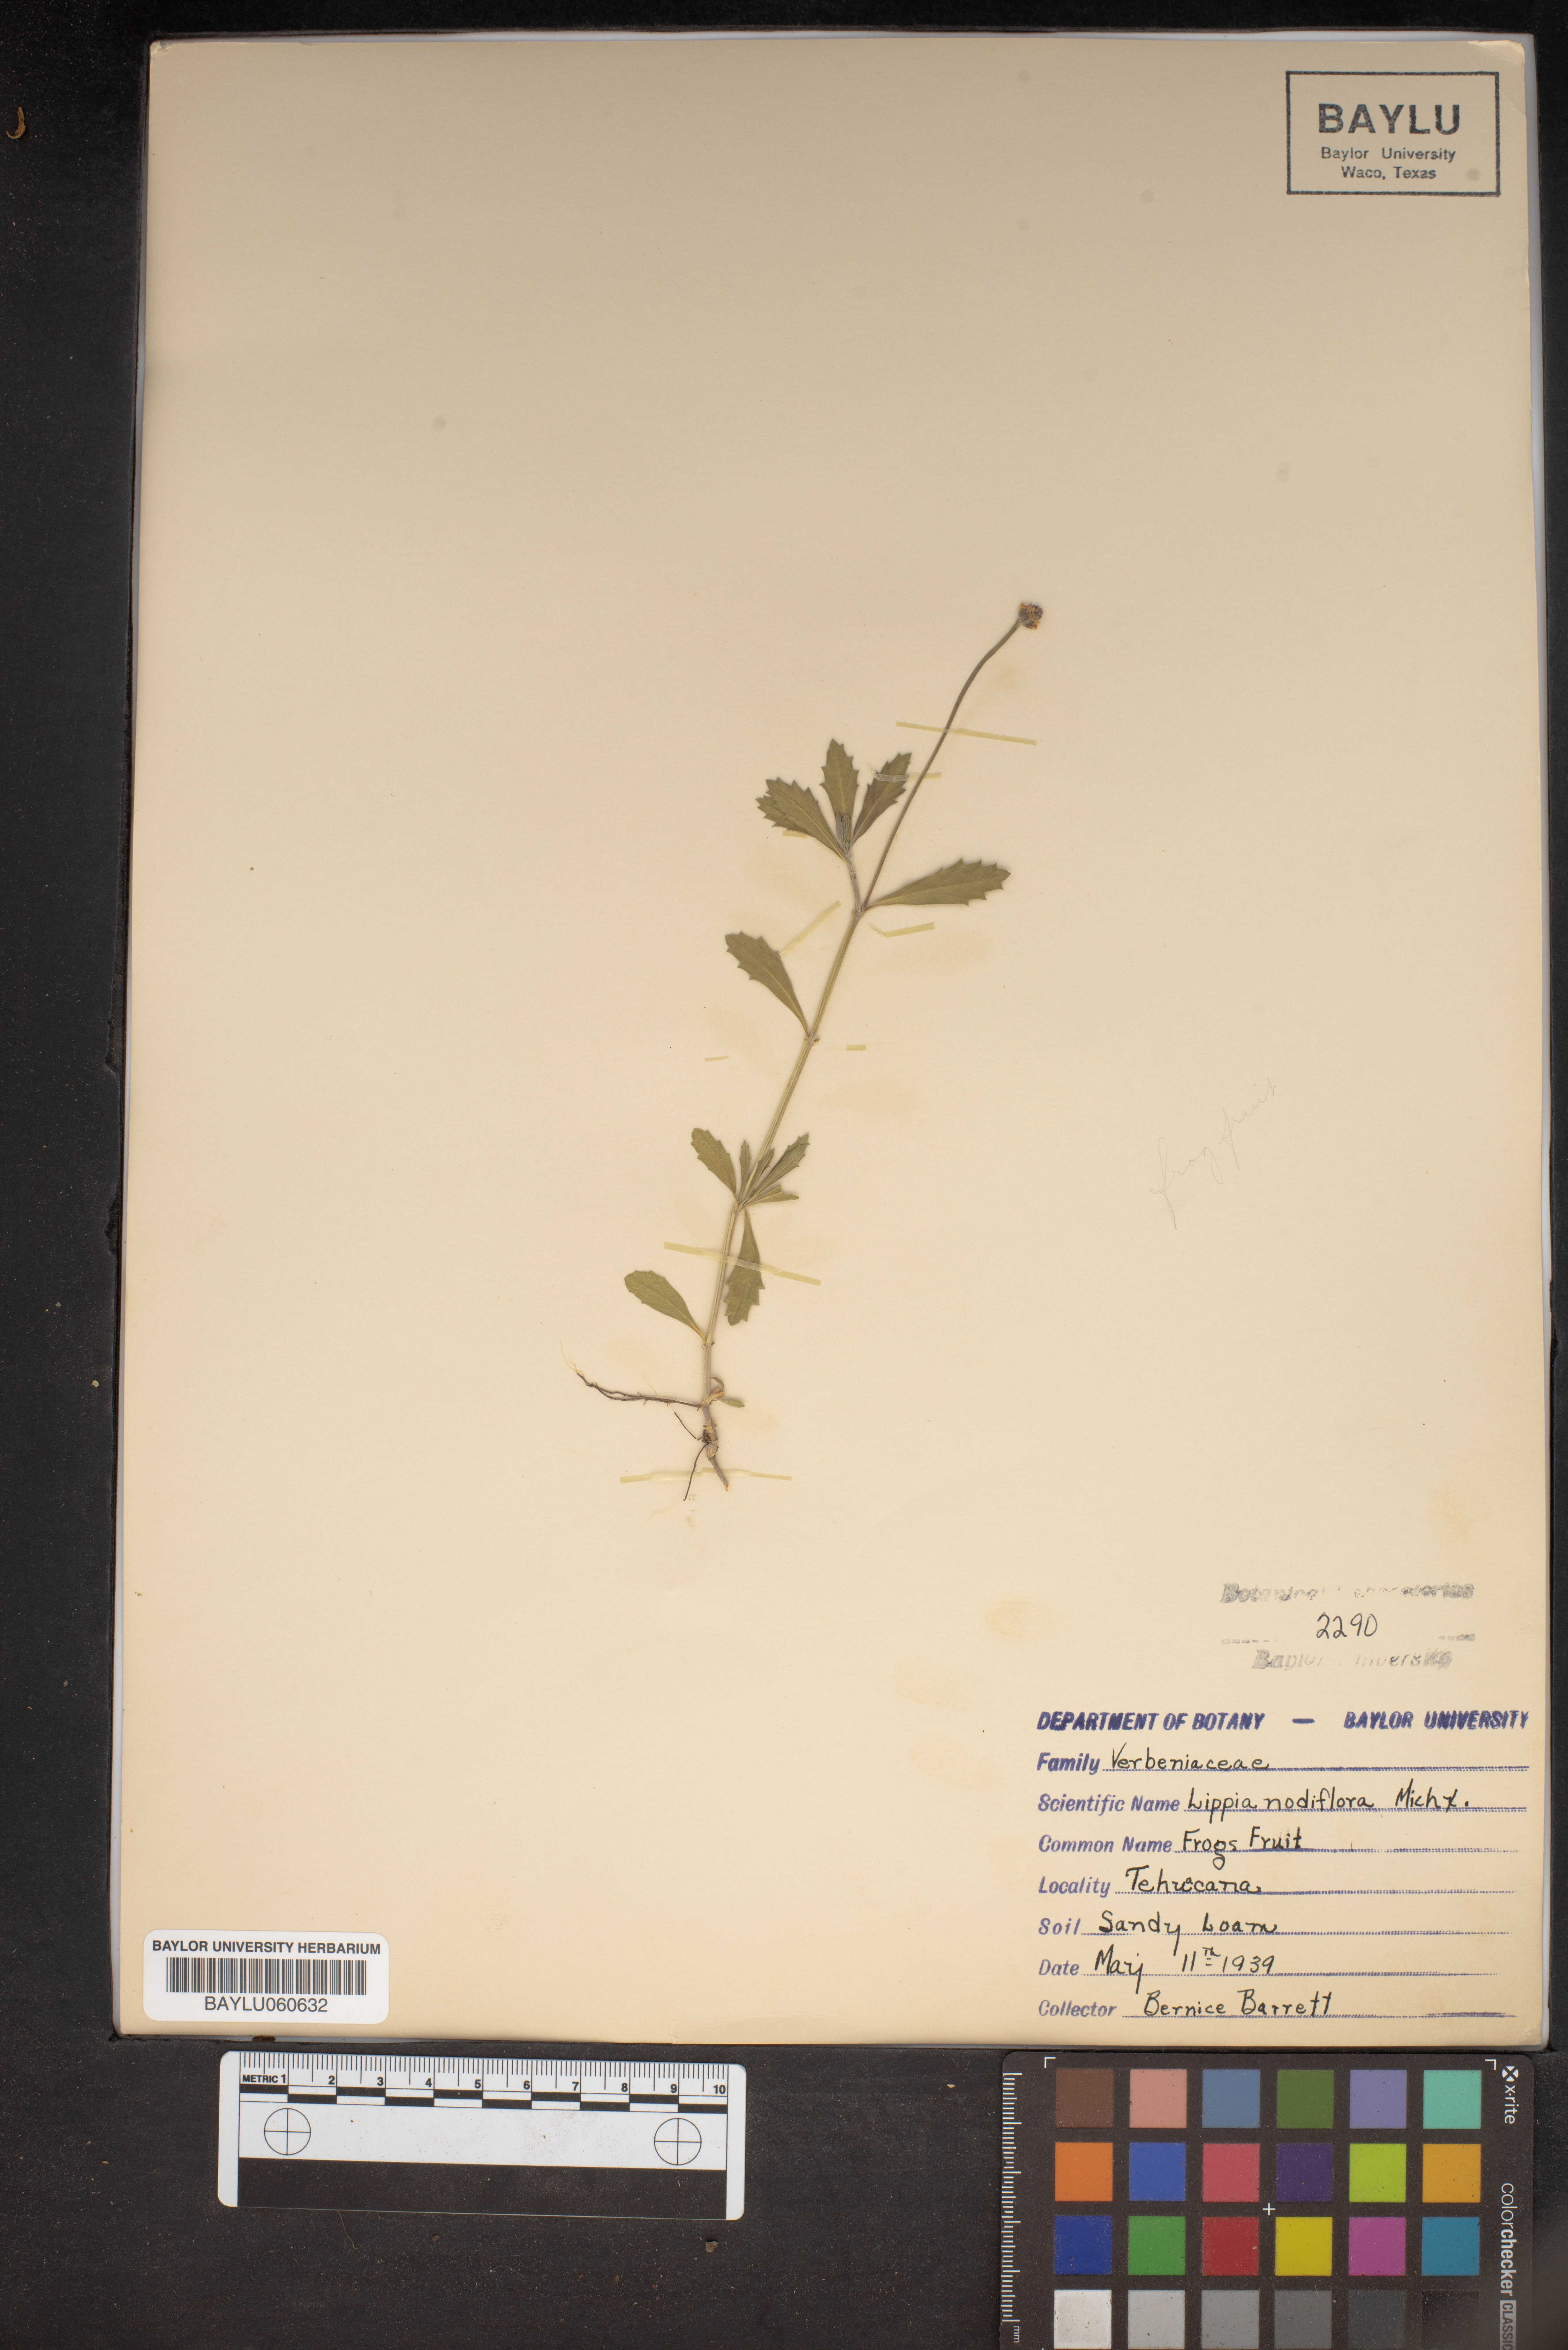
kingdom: Plantae
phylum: Tracheophyta
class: Magnoliopsida
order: Lamiales
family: Verbenaceae
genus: Phyla
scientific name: Phyla nodiflora
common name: Frogfruit
